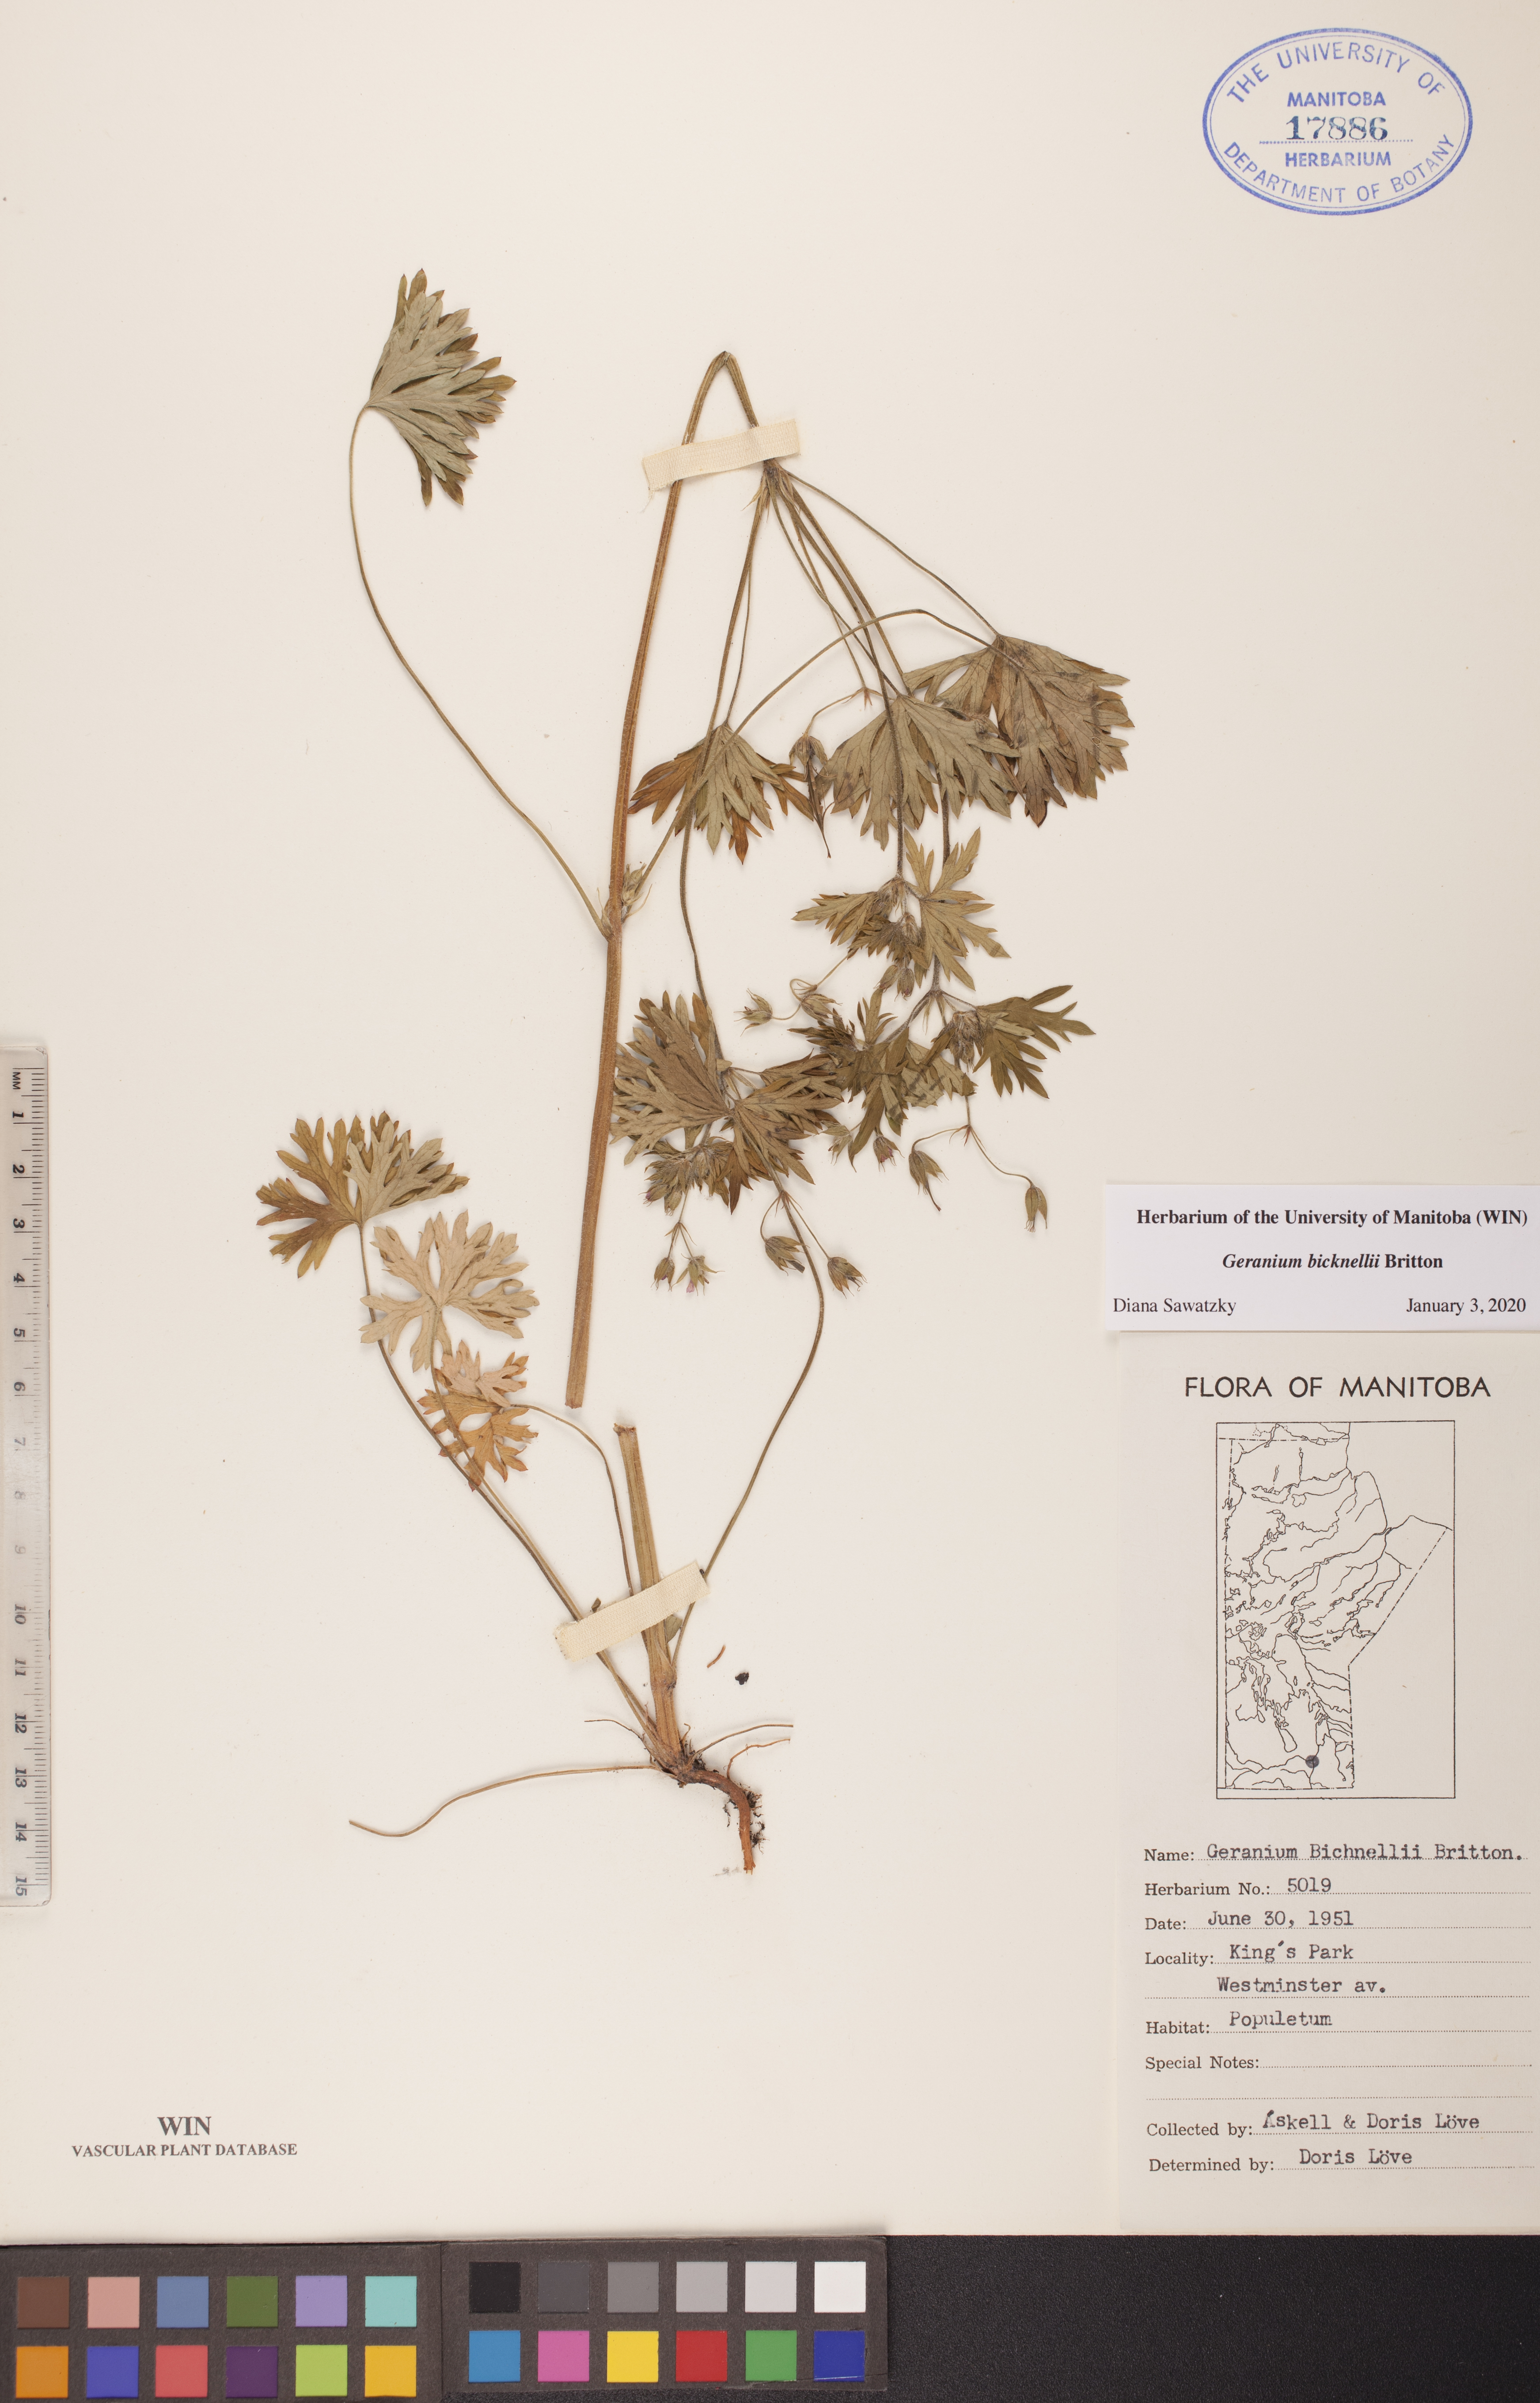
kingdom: Plantae
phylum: Tracheophyta
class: Magnoliopsida
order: Geraniales
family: Geraniaceae
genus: Geranium
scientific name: Geranium bicknellii
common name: Bicknell's cranesbill
